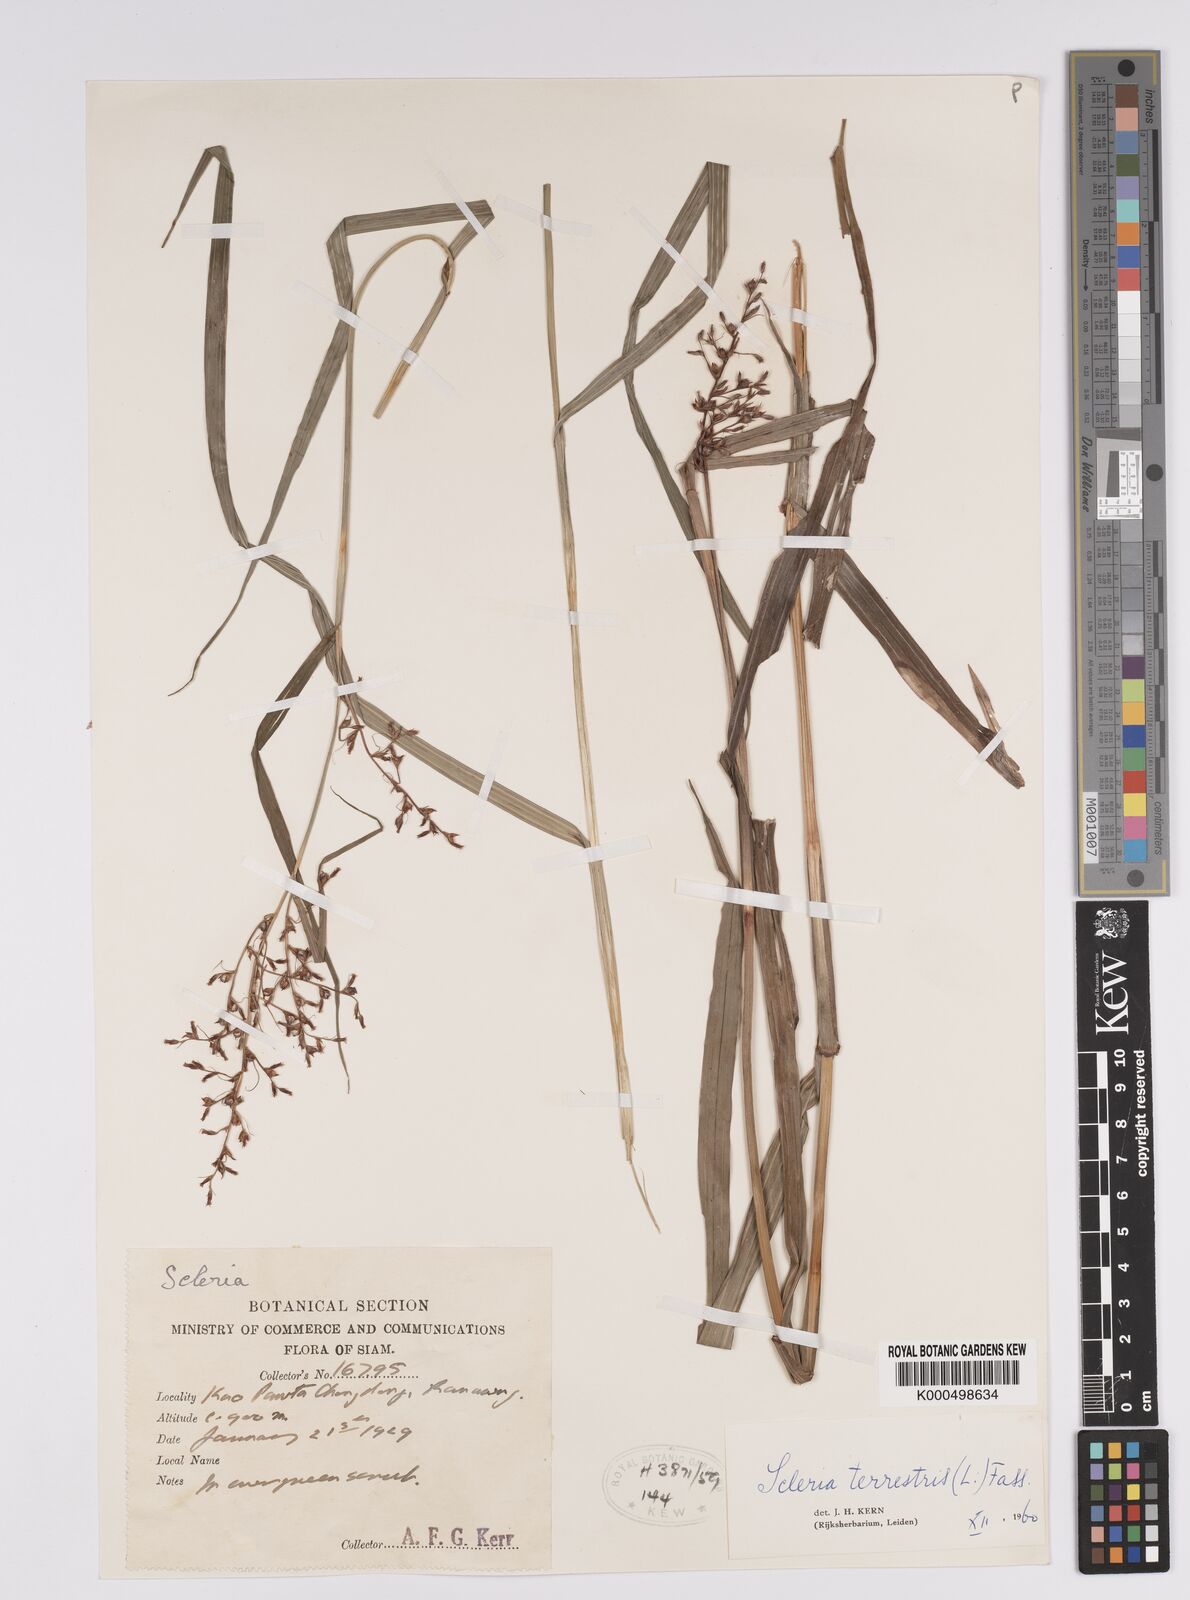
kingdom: Plantae
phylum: Tracheophyta
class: Liliopsida
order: Poales
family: Cyperaceae
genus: Scleria
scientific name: Scleria terrestris
